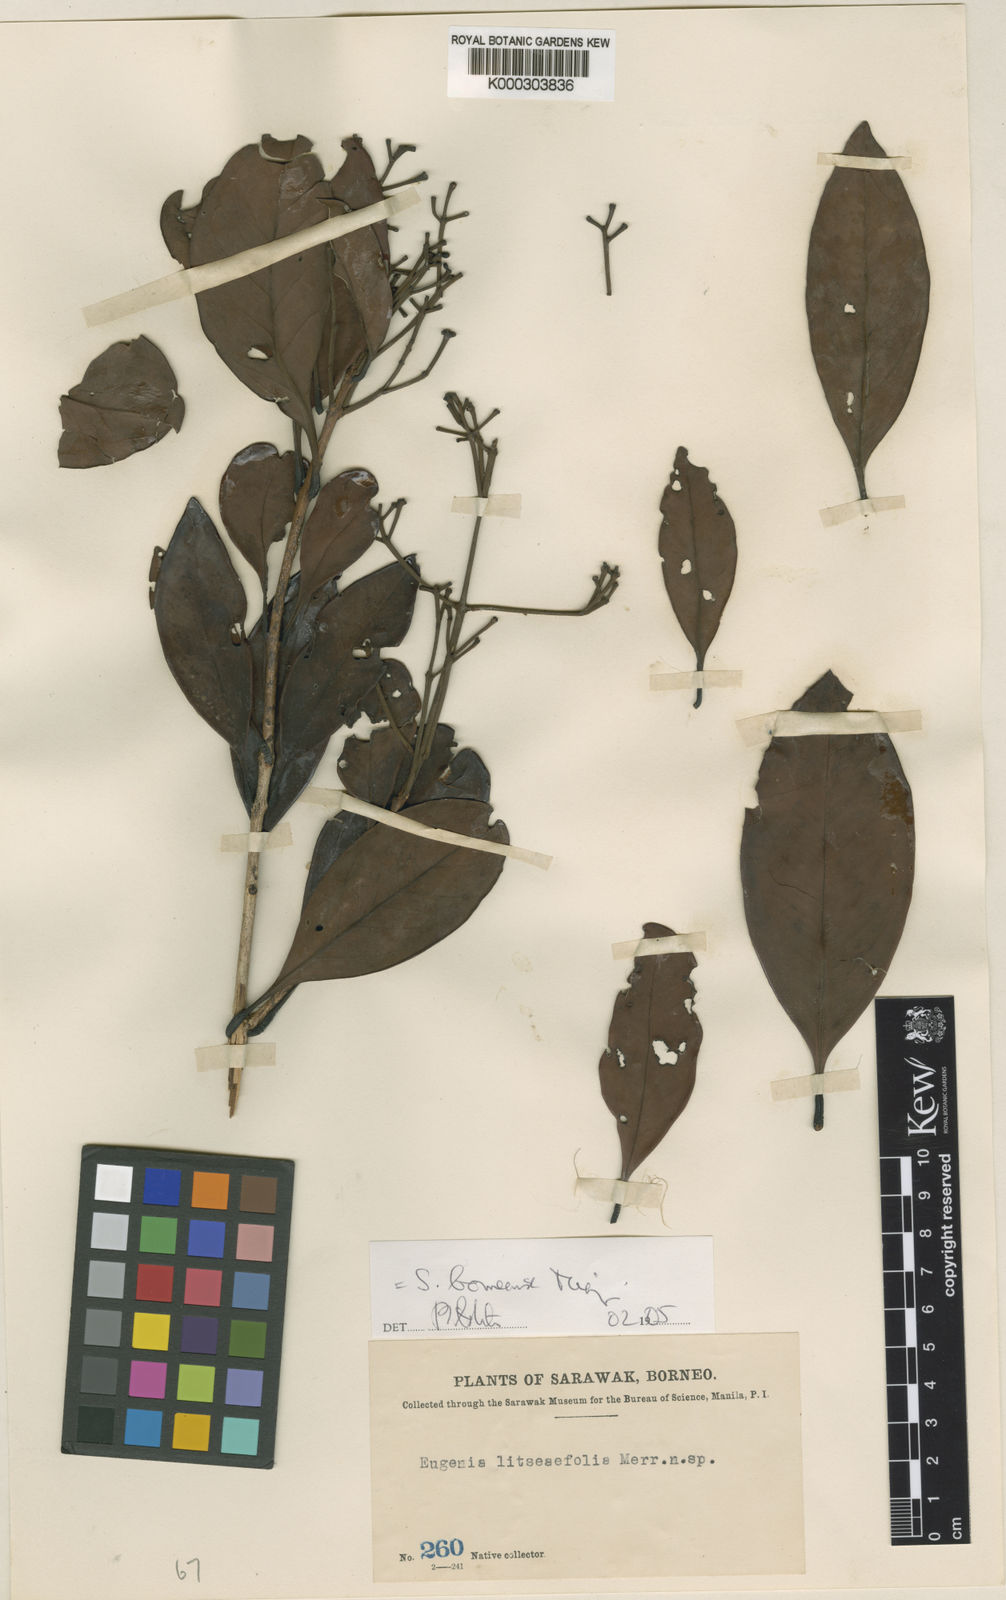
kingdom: Plantae
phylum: Tracheophyta
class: Magnoliopsida
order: Myrtales
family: Myrtaceae
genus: Syzygium
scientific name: Syzygium borneense
